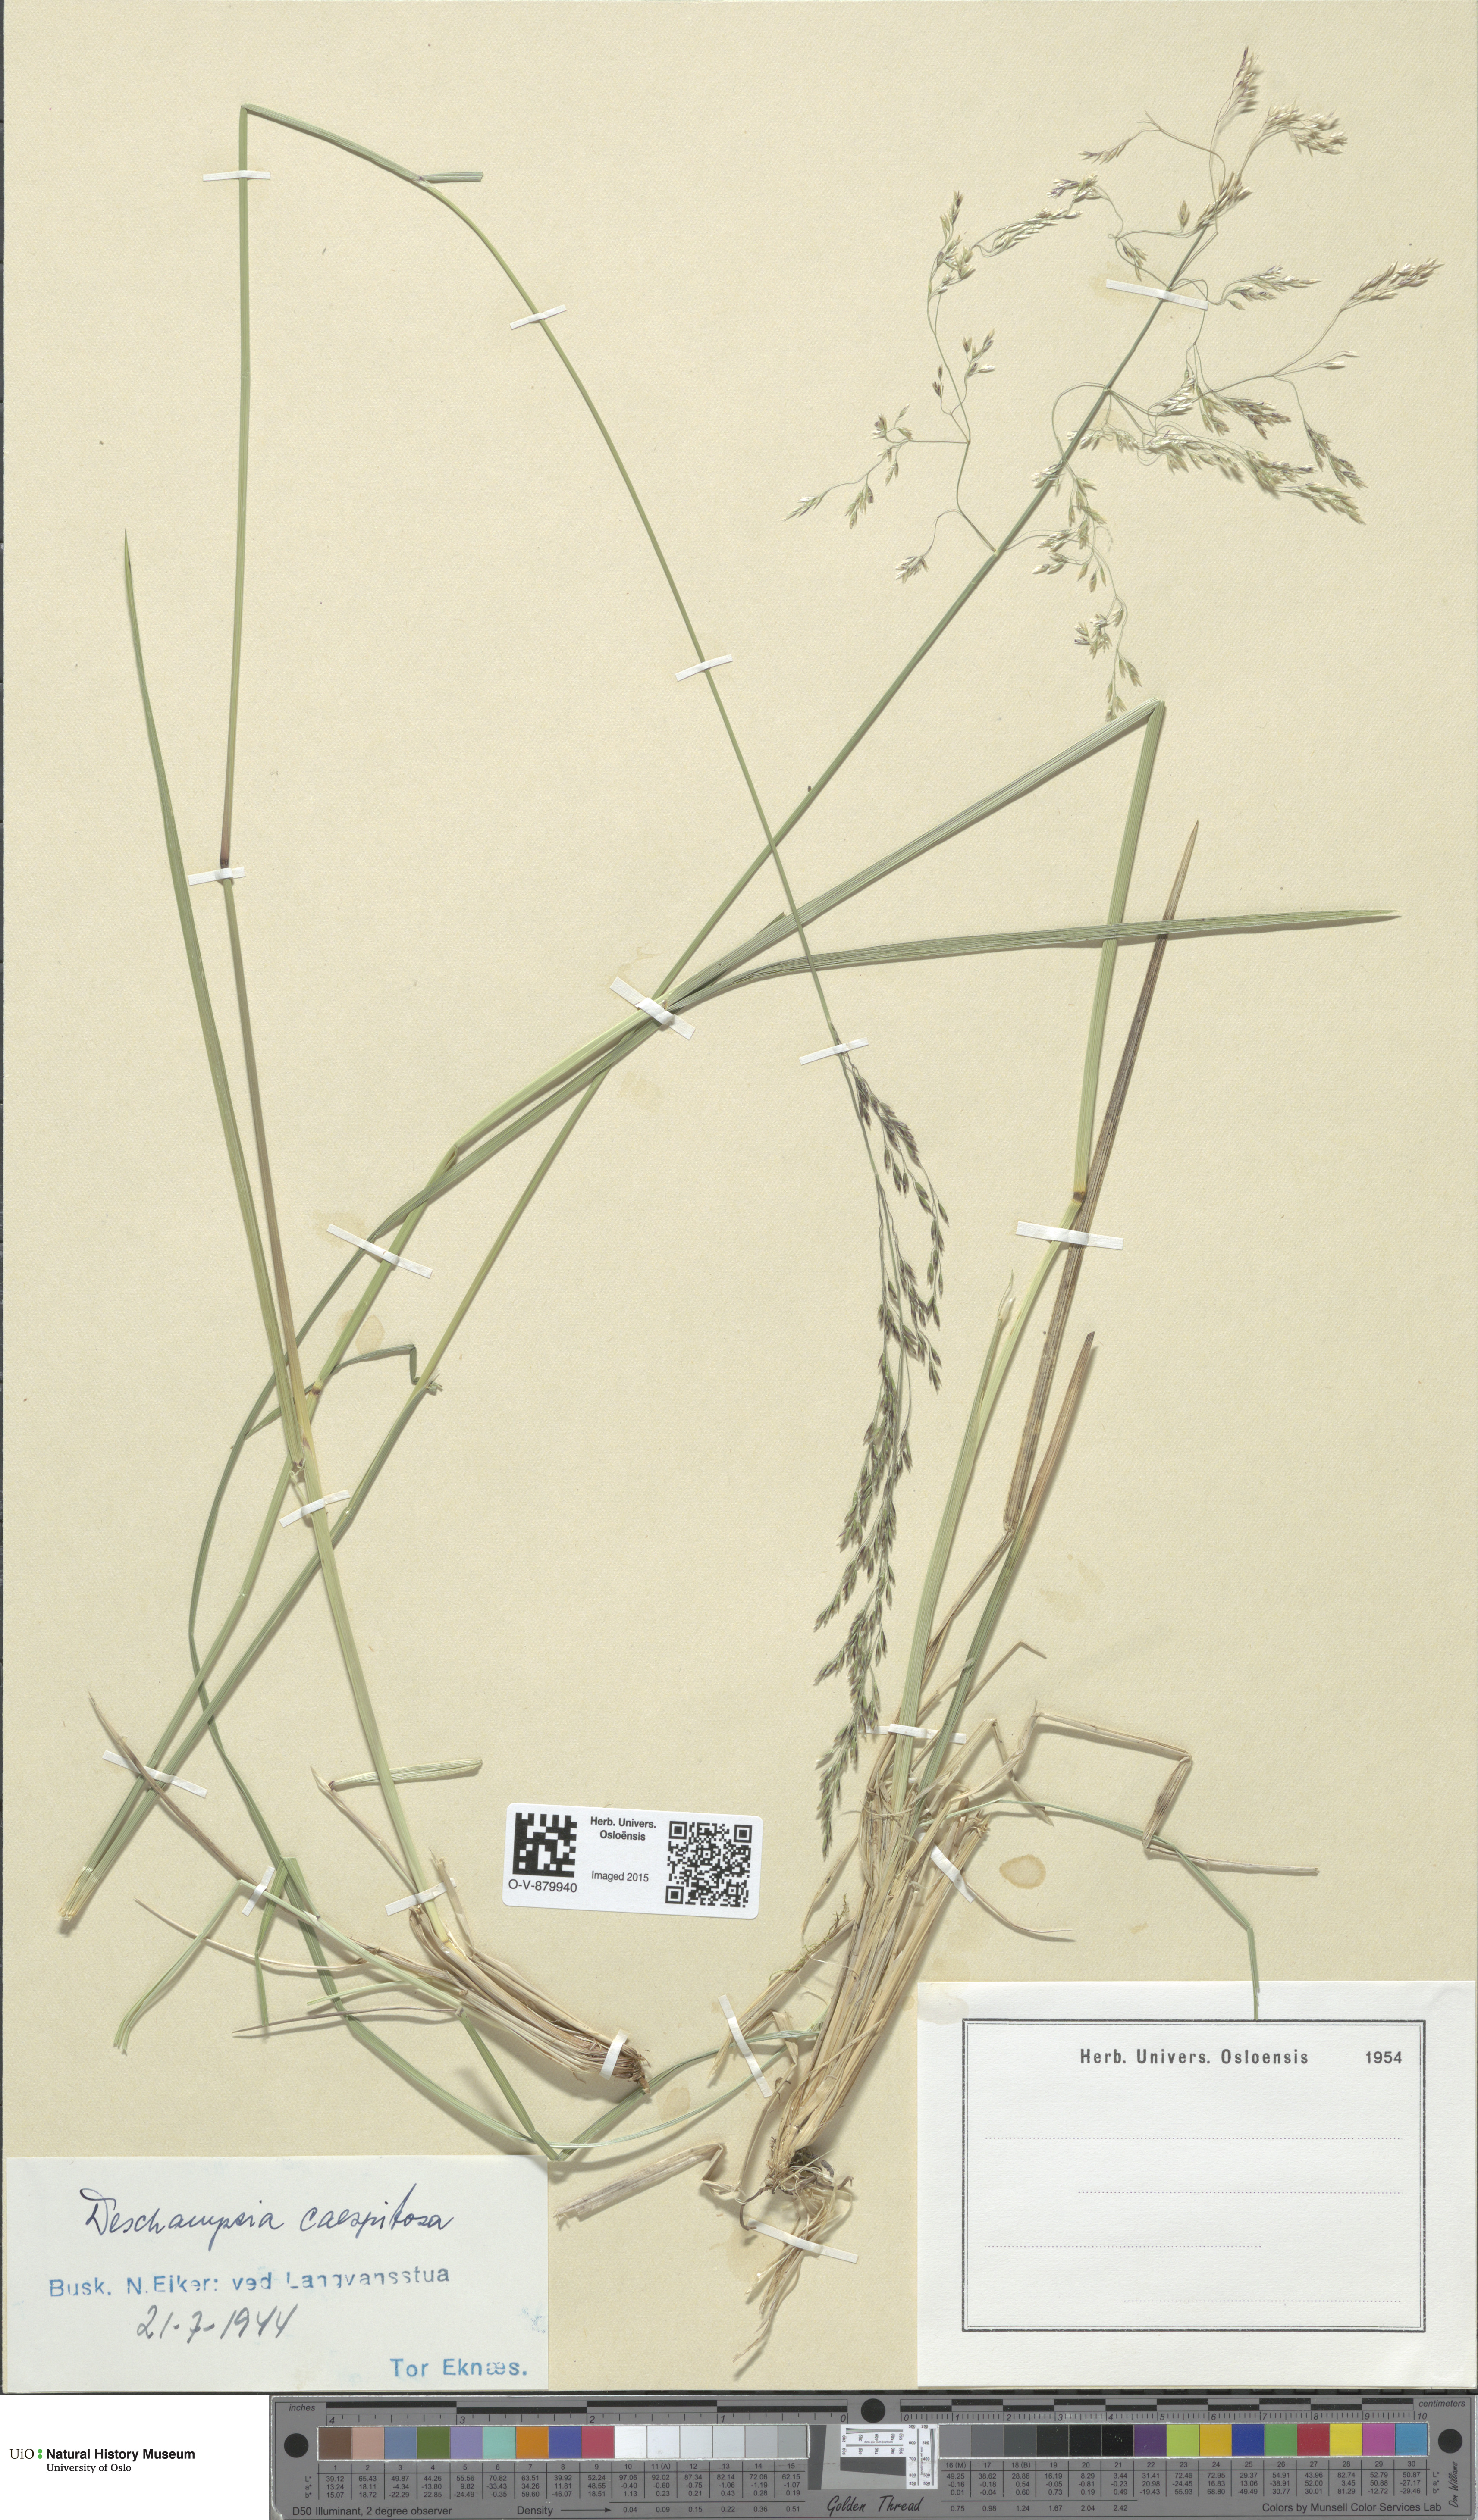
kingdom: Plantae
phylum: Tracheophyta
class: Liliopsida
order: Poales
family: Poaceae
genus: Deschampsia
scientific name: Deschampsia cespitosa
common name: Tufted hair-grass
